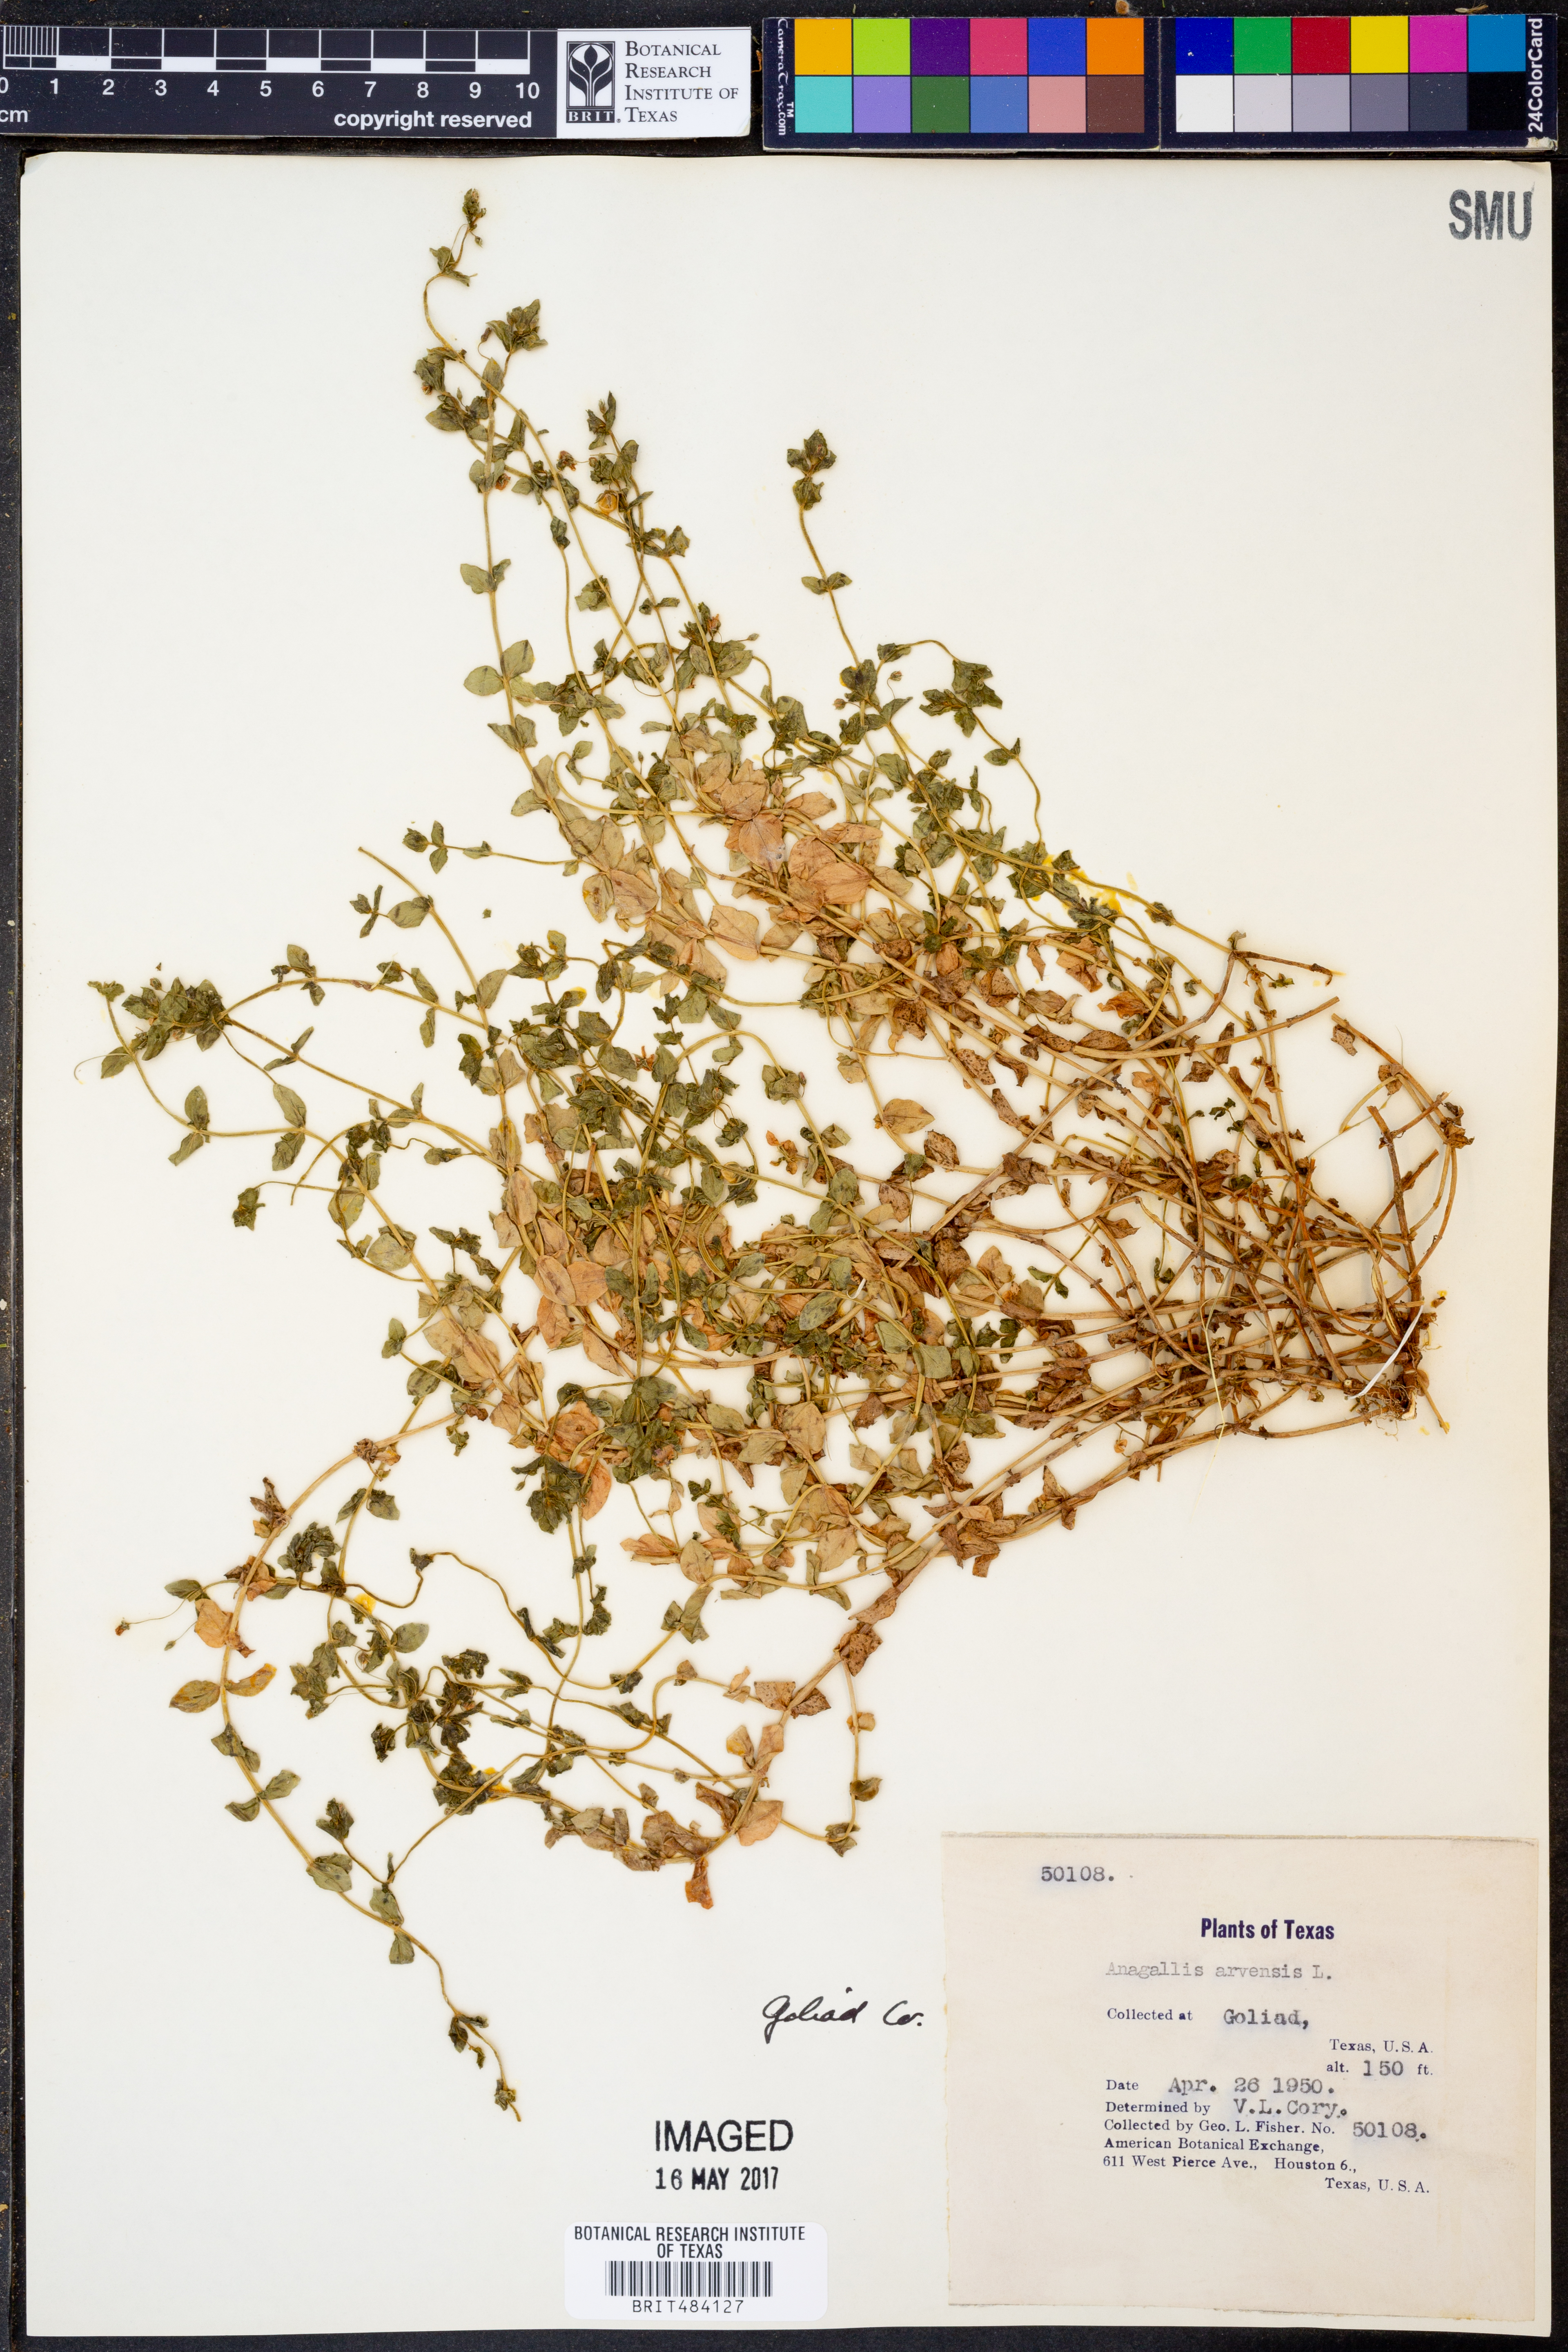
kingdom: Plantae
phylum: Tracheophyta
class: Magnoliopsida
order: Ericales
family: Primulaceae
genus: Lysimachia
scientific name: Lysimachia arvensis
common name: Scarlet pimpernel
